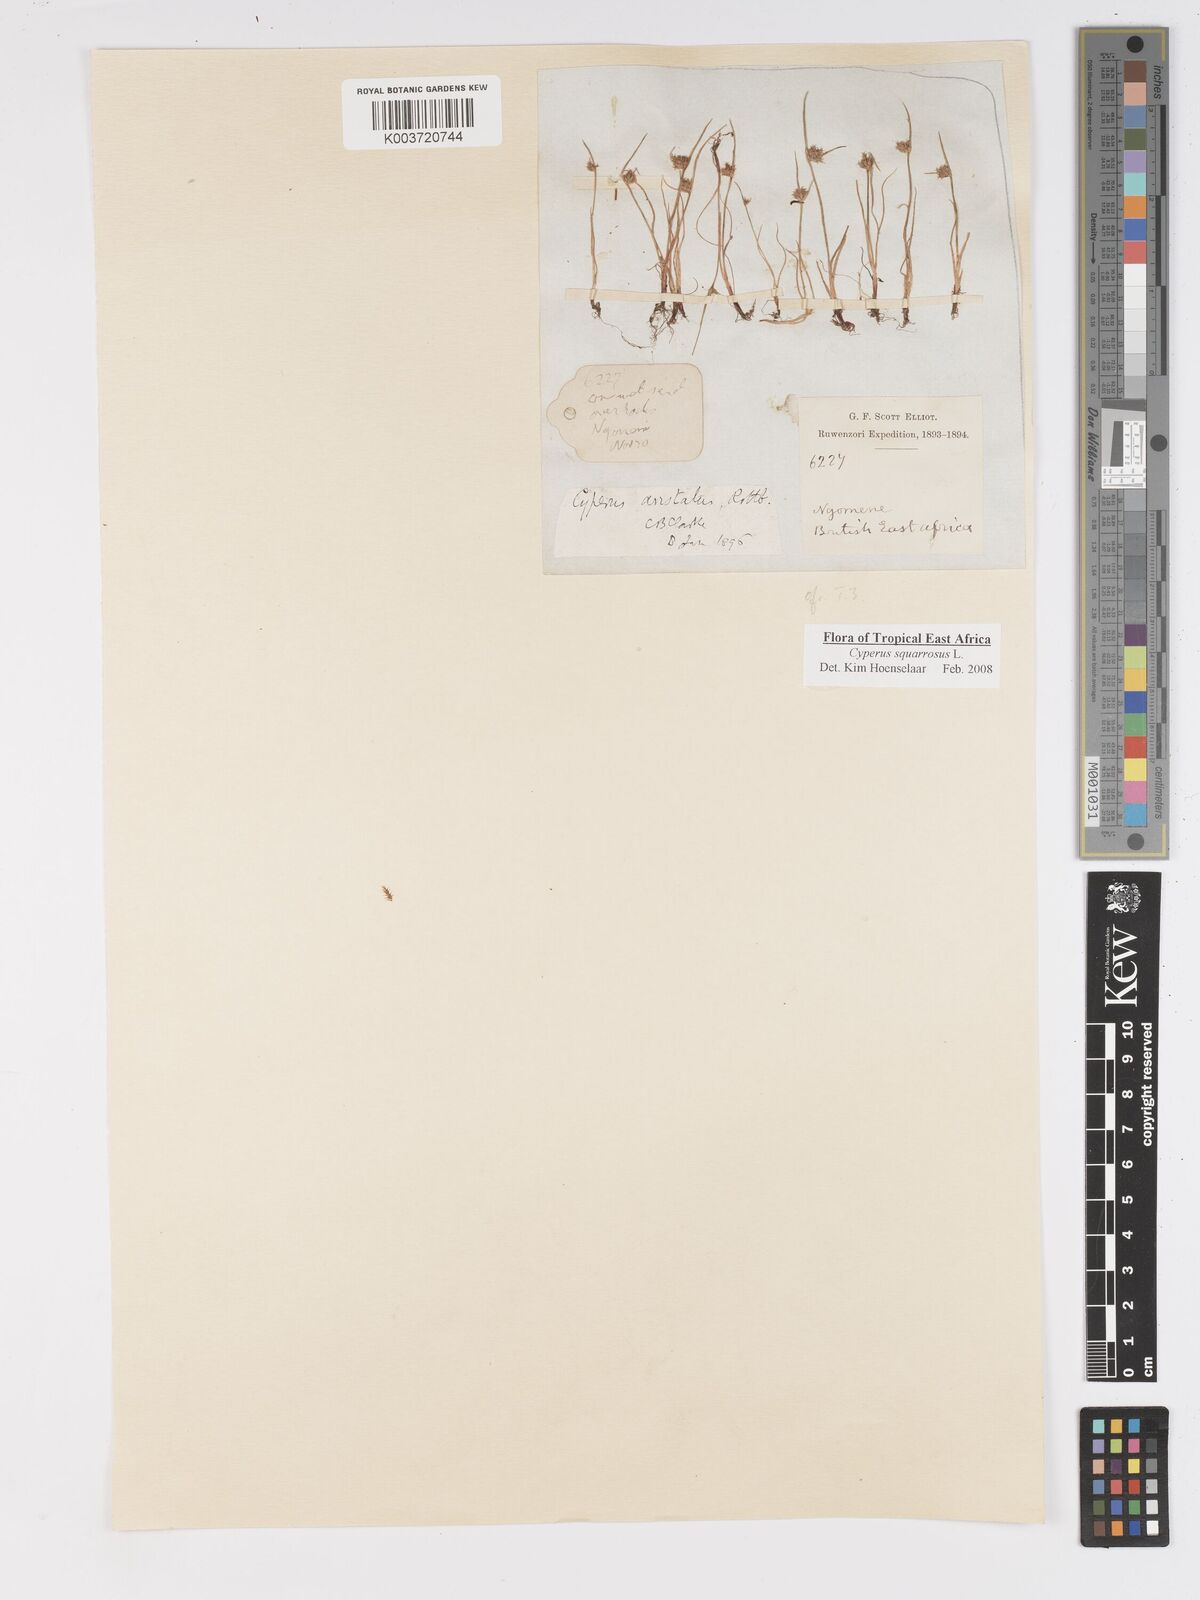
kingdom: Plantae
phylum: Tracheophyta
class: Liliopsida
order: Poales
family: Cyperaceae
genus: Cyperus
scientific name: Cyperus squarrosus
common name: Awned cyperus
